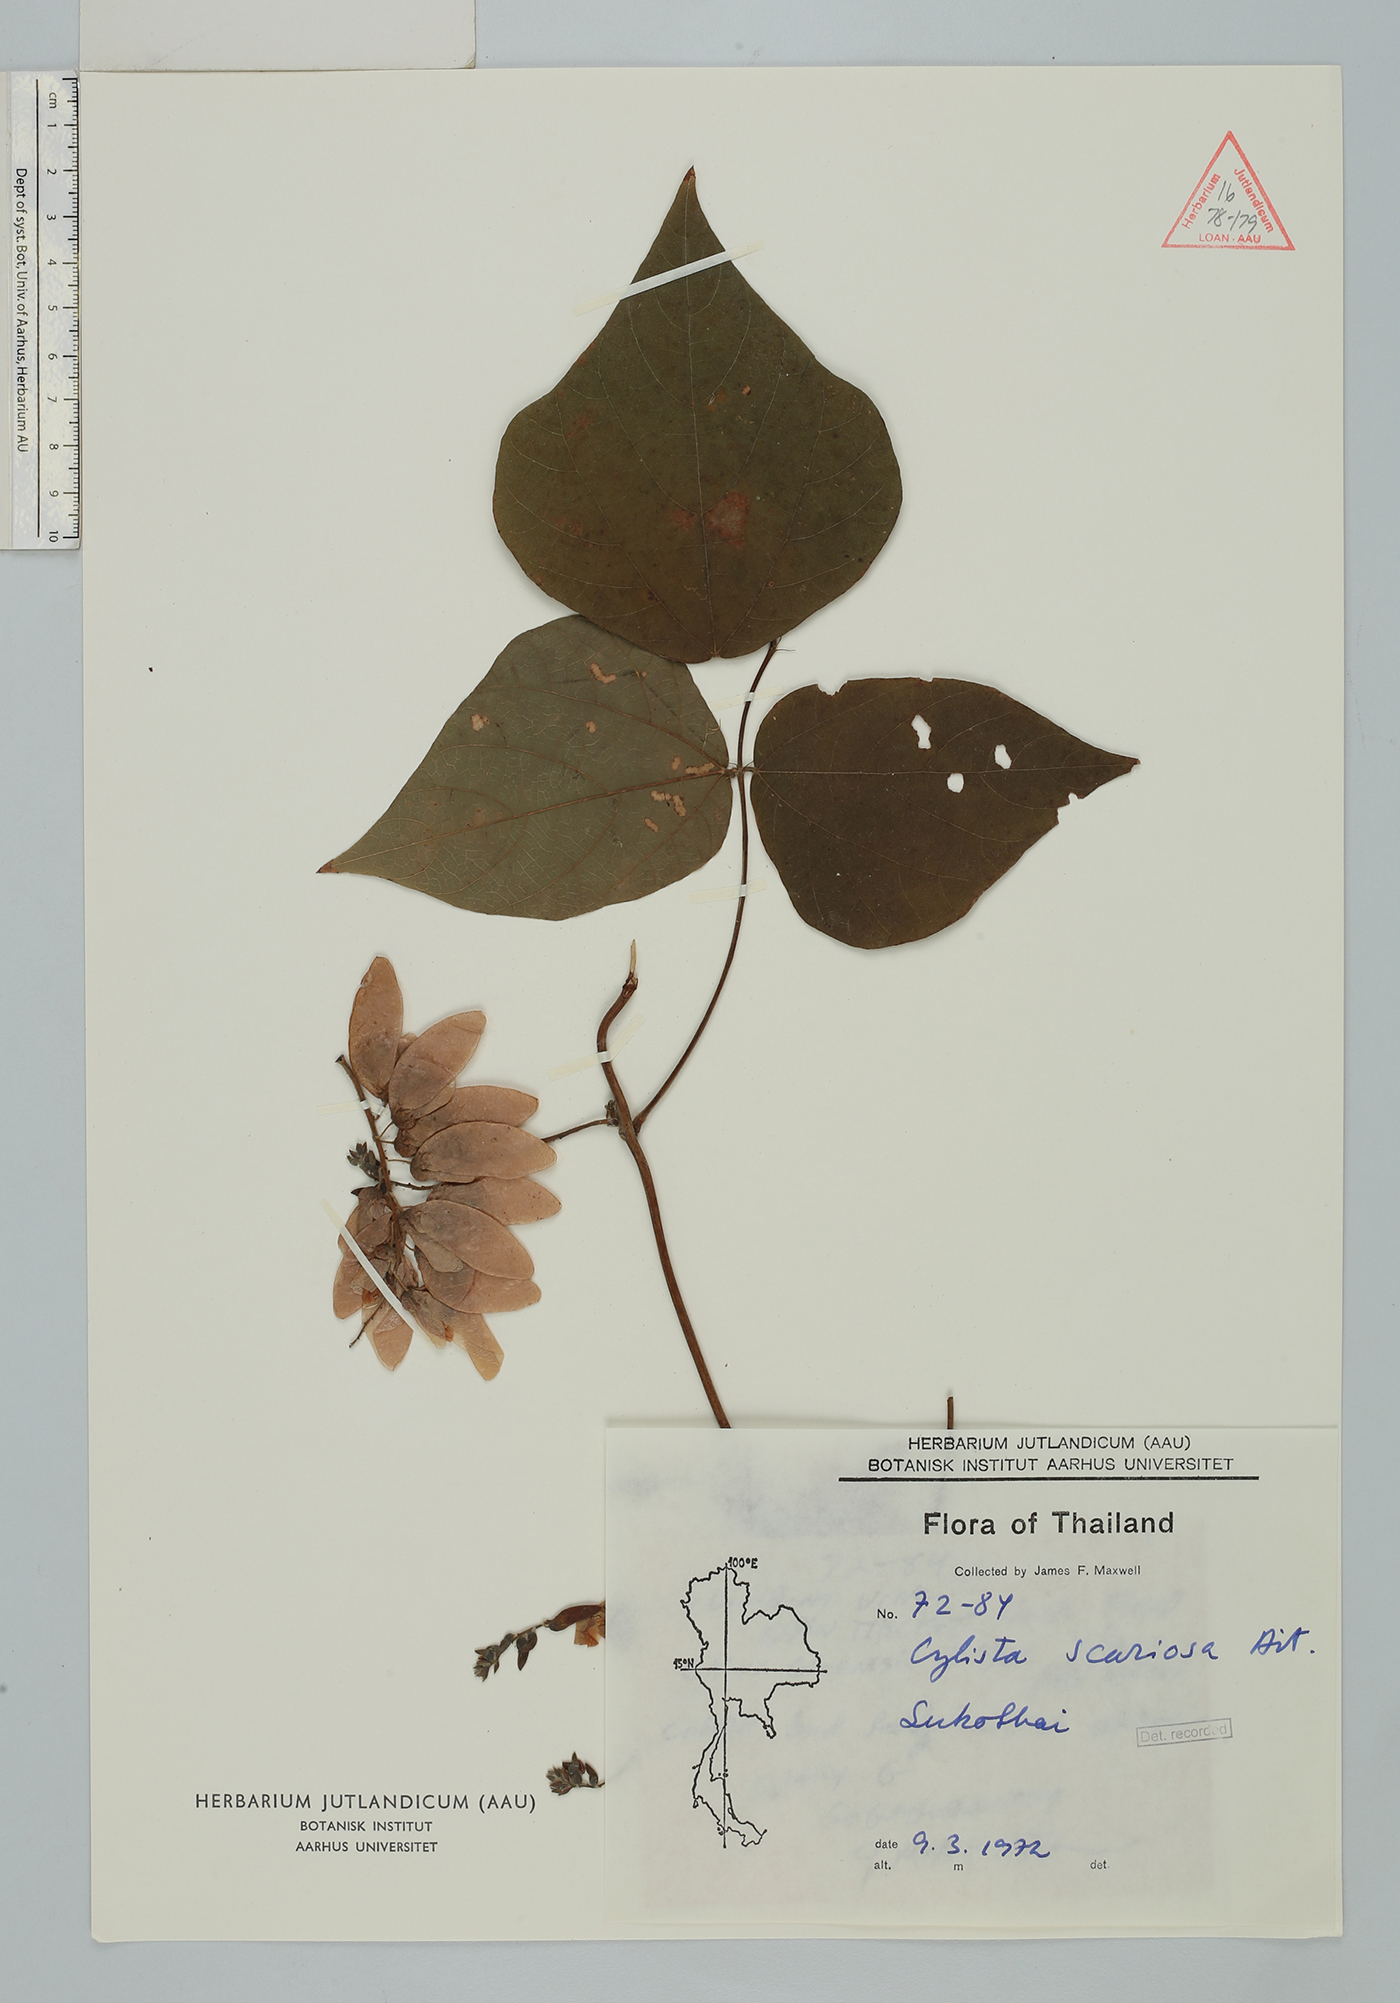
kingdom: Plantae
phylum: Tracheophyta
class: Magnoliopsida
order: Fabales
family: Fabaceae
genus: Paracalyx
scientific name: Paracalyx scariosus
